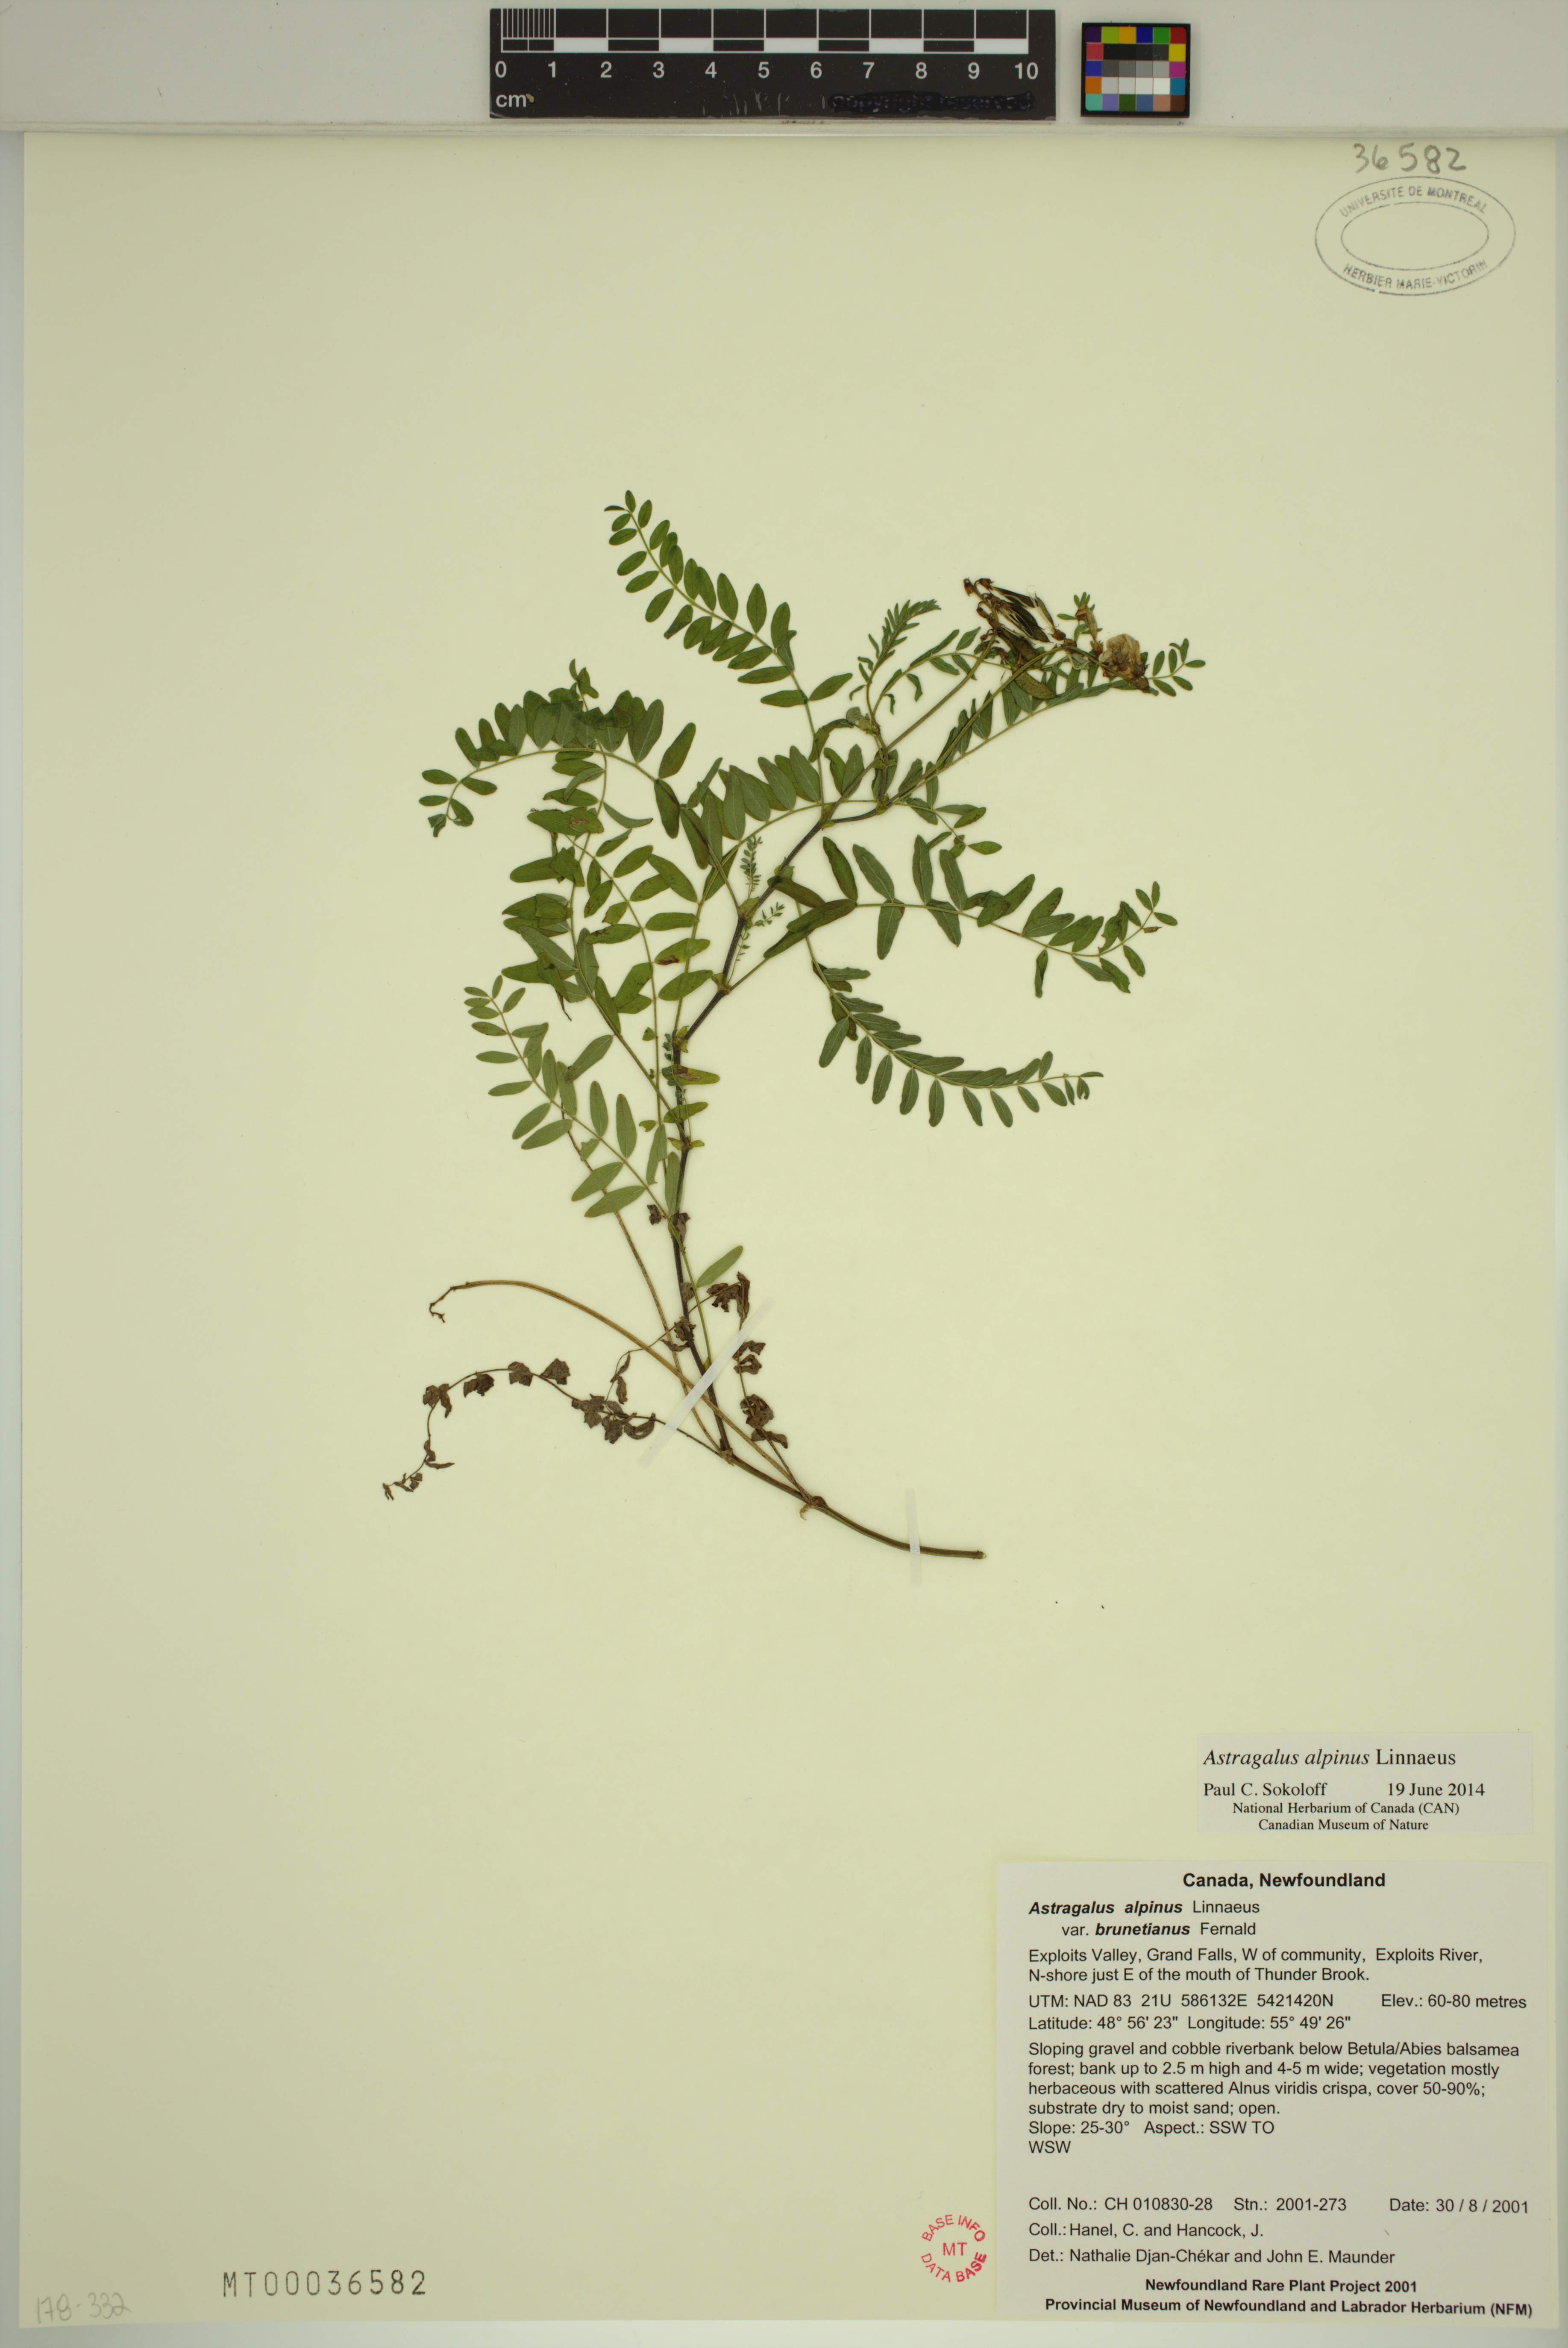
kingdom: Plantae
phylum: Tracheophyta
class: Magnoliopsida
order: Fabales
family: Fabaceae
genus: Astragalus
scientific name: Astragalus alpinus
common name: Alpine milk-vetch
